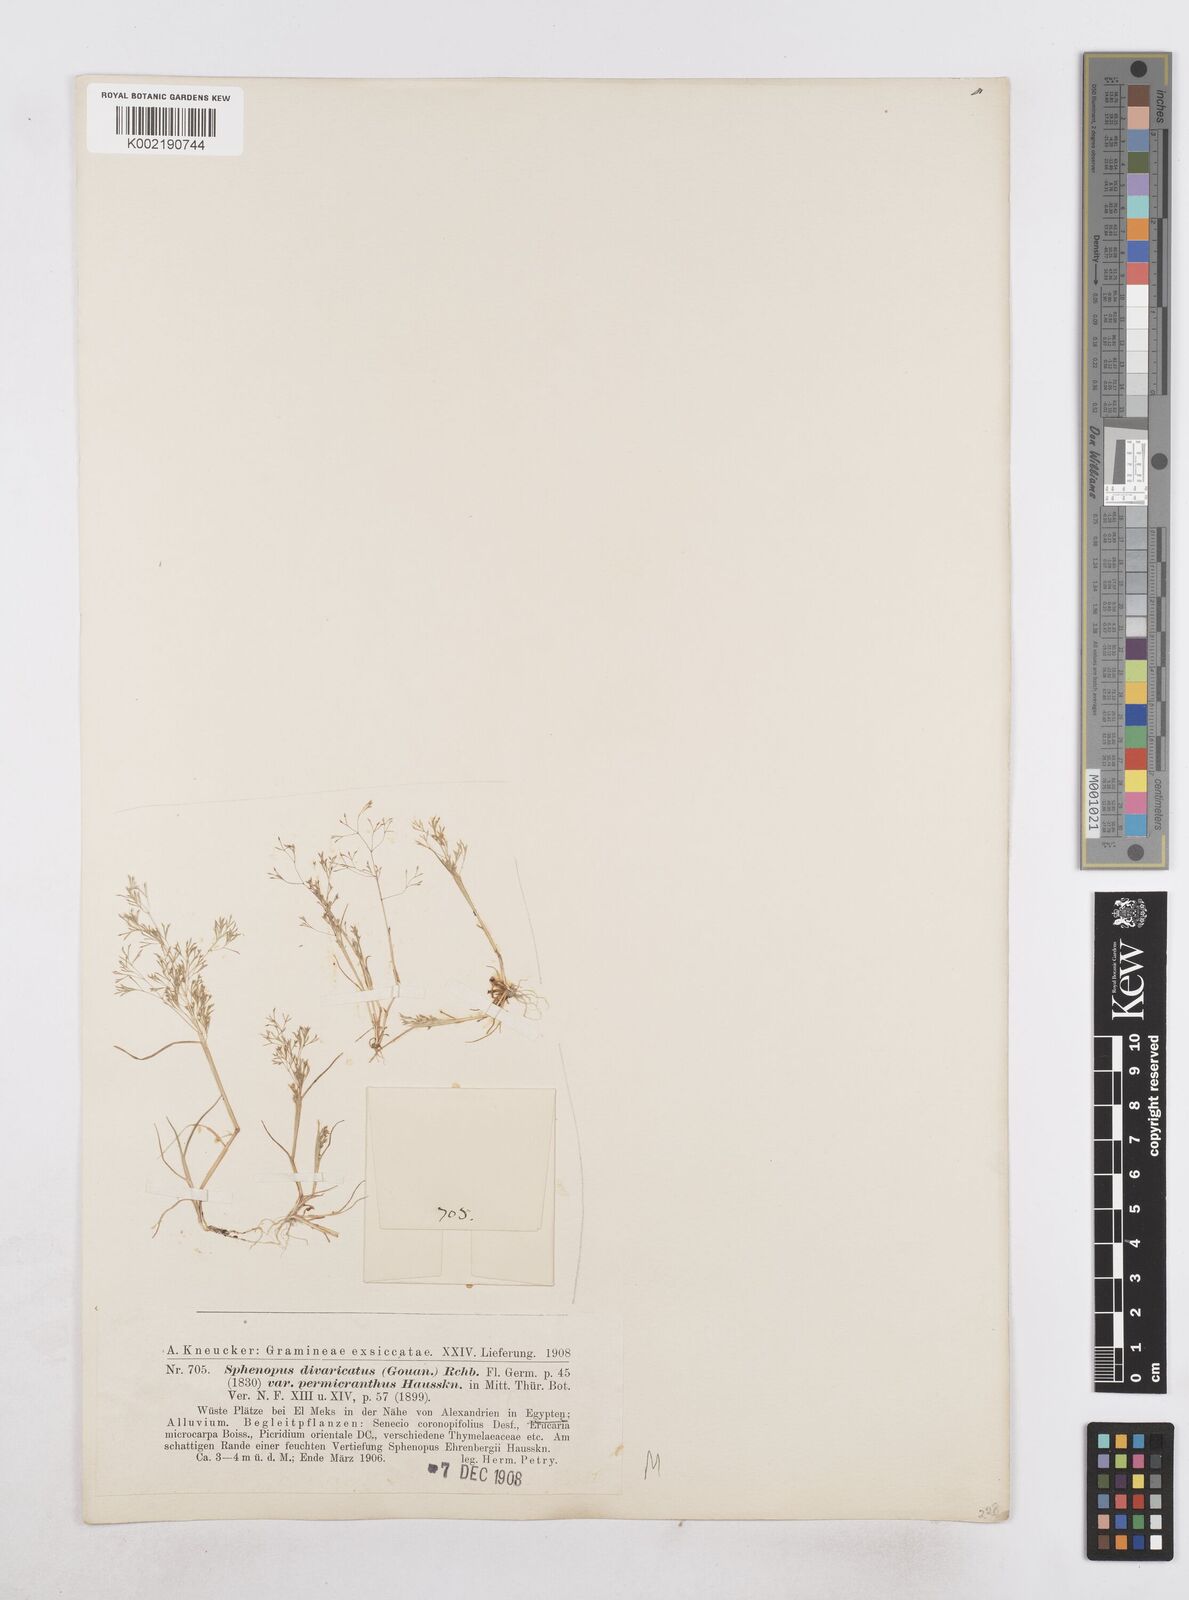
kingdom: Plantae
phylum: Tracheophyta
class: Liliopsida
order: Poales
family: Poaceae
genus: Sphenopus
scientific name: Sphenopus divaricatus
